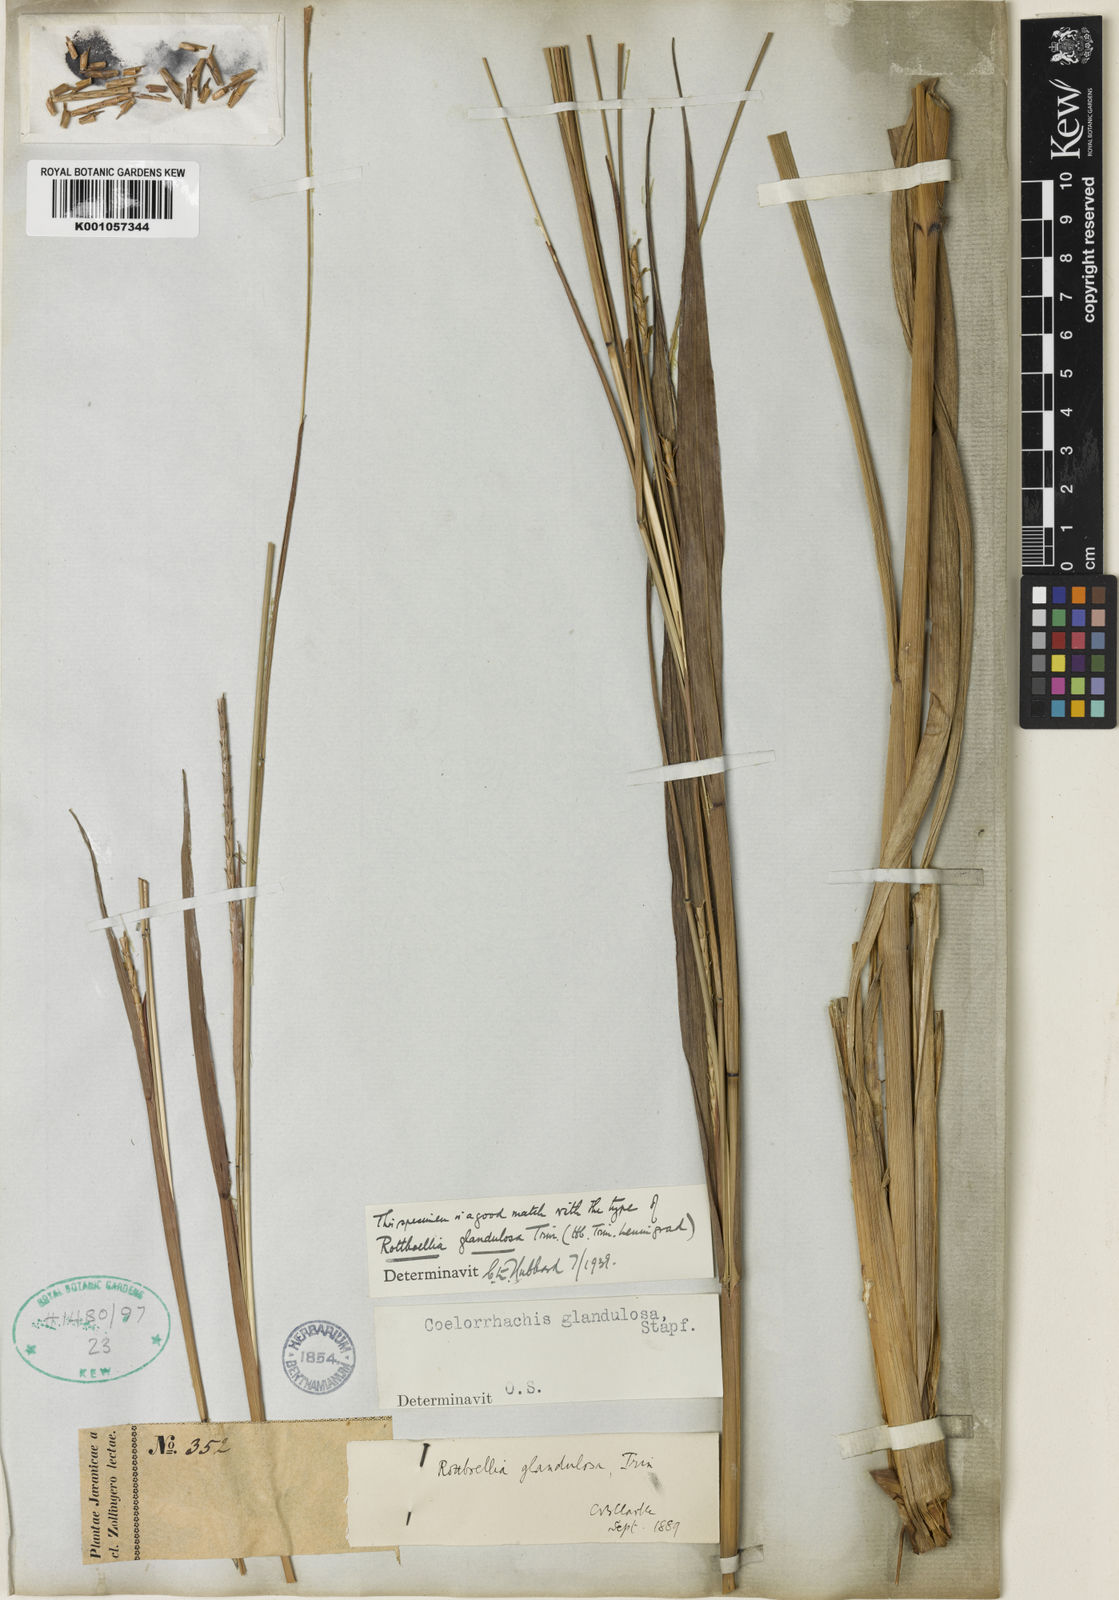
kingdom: Plantae
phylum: Tracheophyta
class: Liliopsida
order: Poales
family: Poaceae
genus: Rottboellia
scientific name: Rottboellia glandulosa
